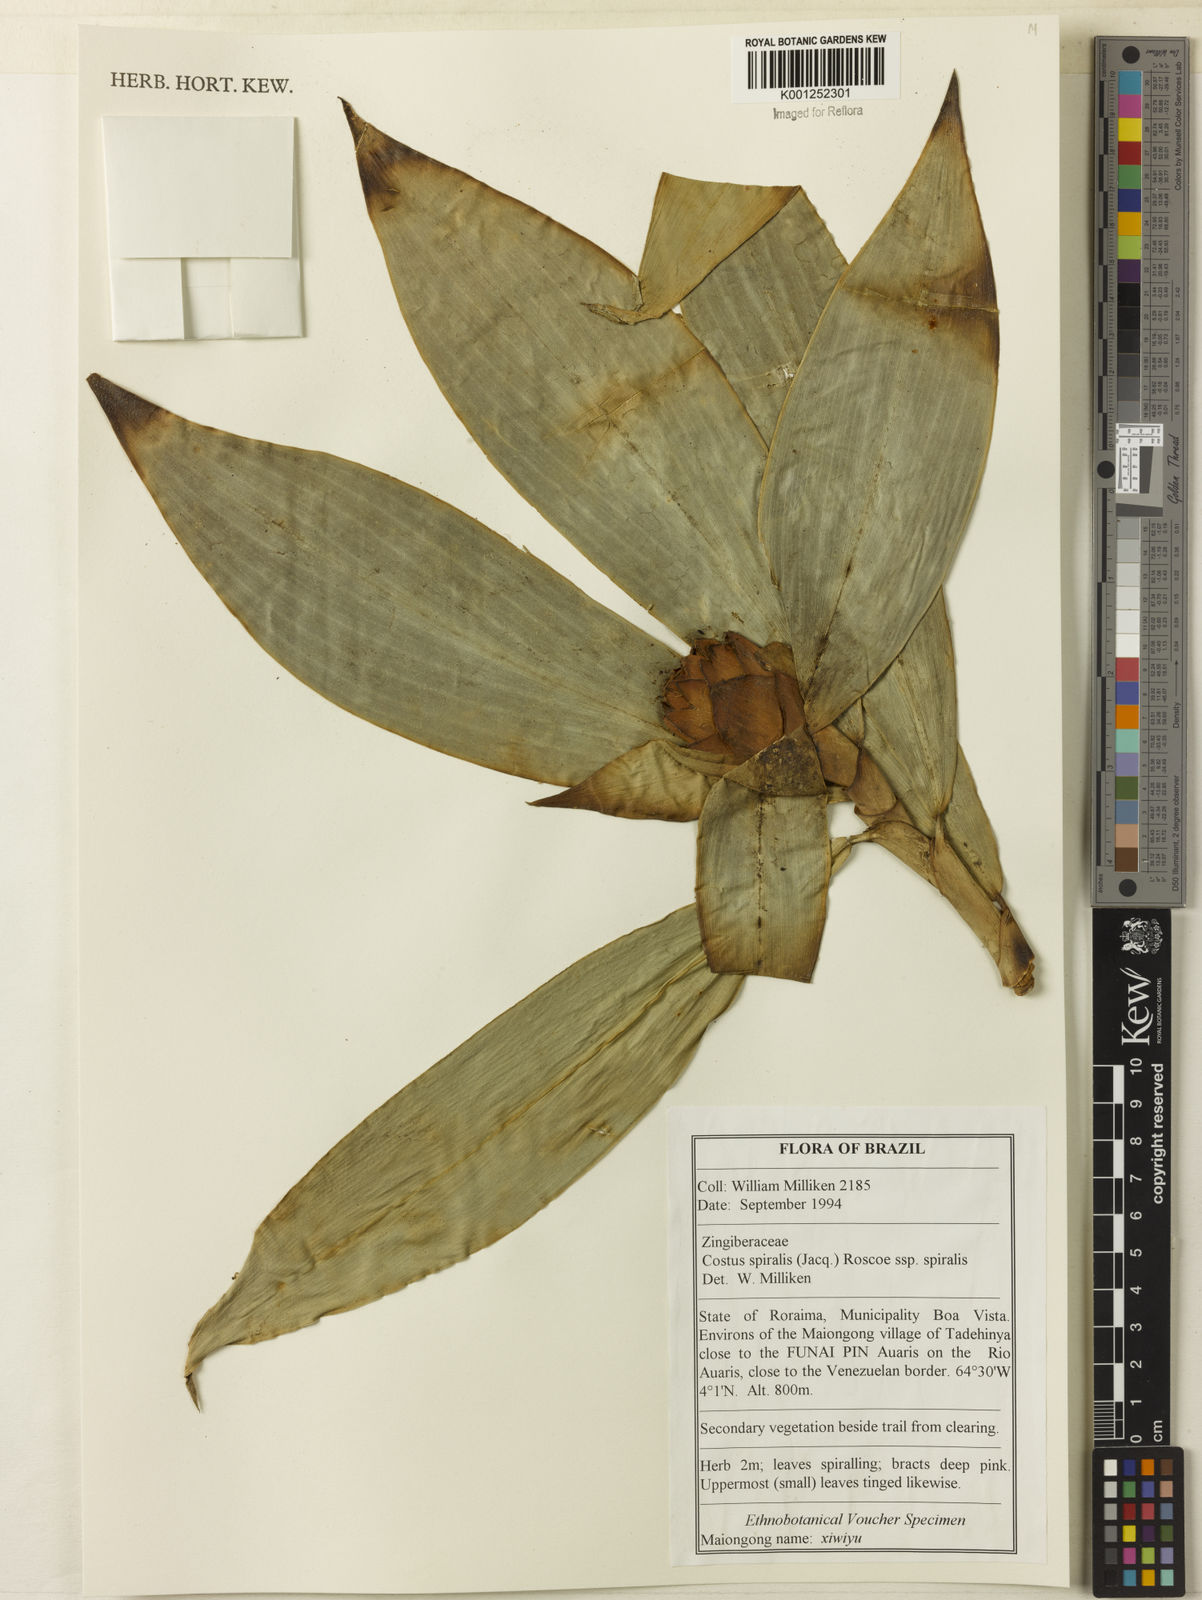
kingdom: Plantae
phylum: Tracheophyta
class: Liliopsida
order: Zingiberales
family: Costaceae
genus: Costus
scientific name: Costus spiralis
